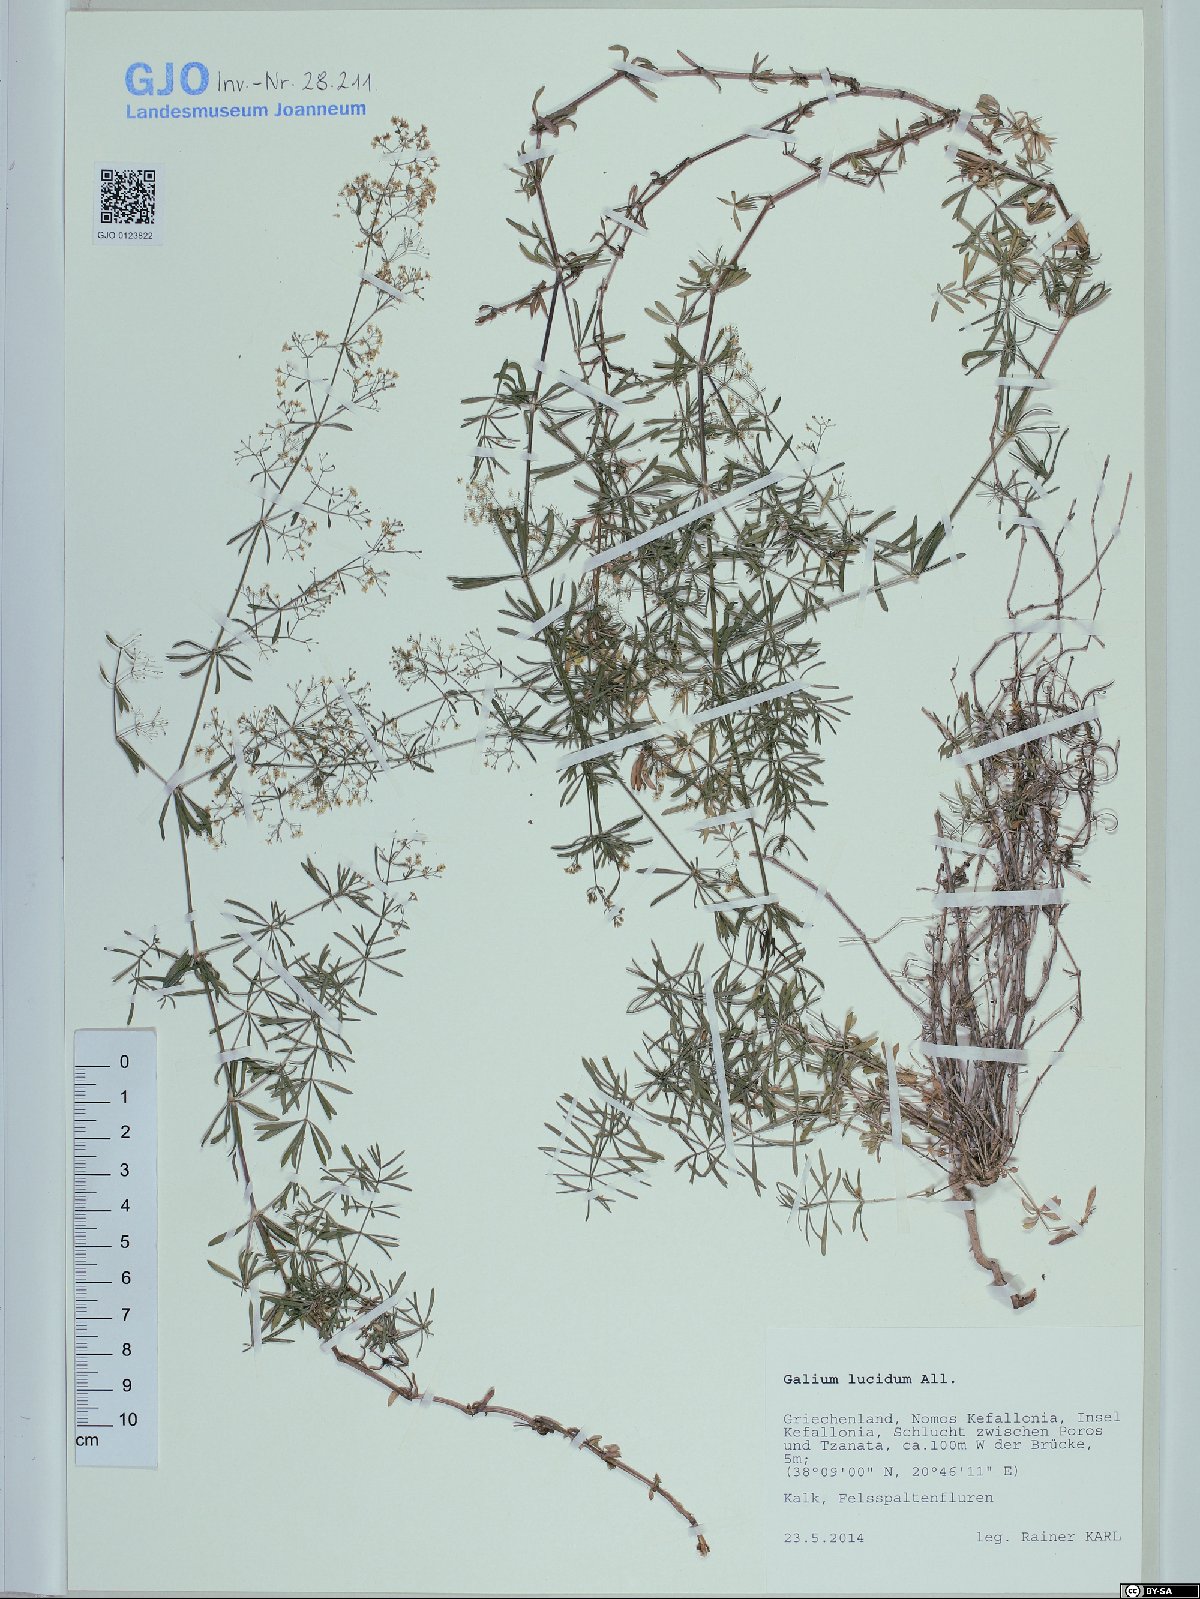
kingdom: Plantae
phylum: Tracheophyta
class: Magnoliopsida
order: Gentianales
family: Rubiaceae
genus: Galium
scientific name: Galium lucidum
